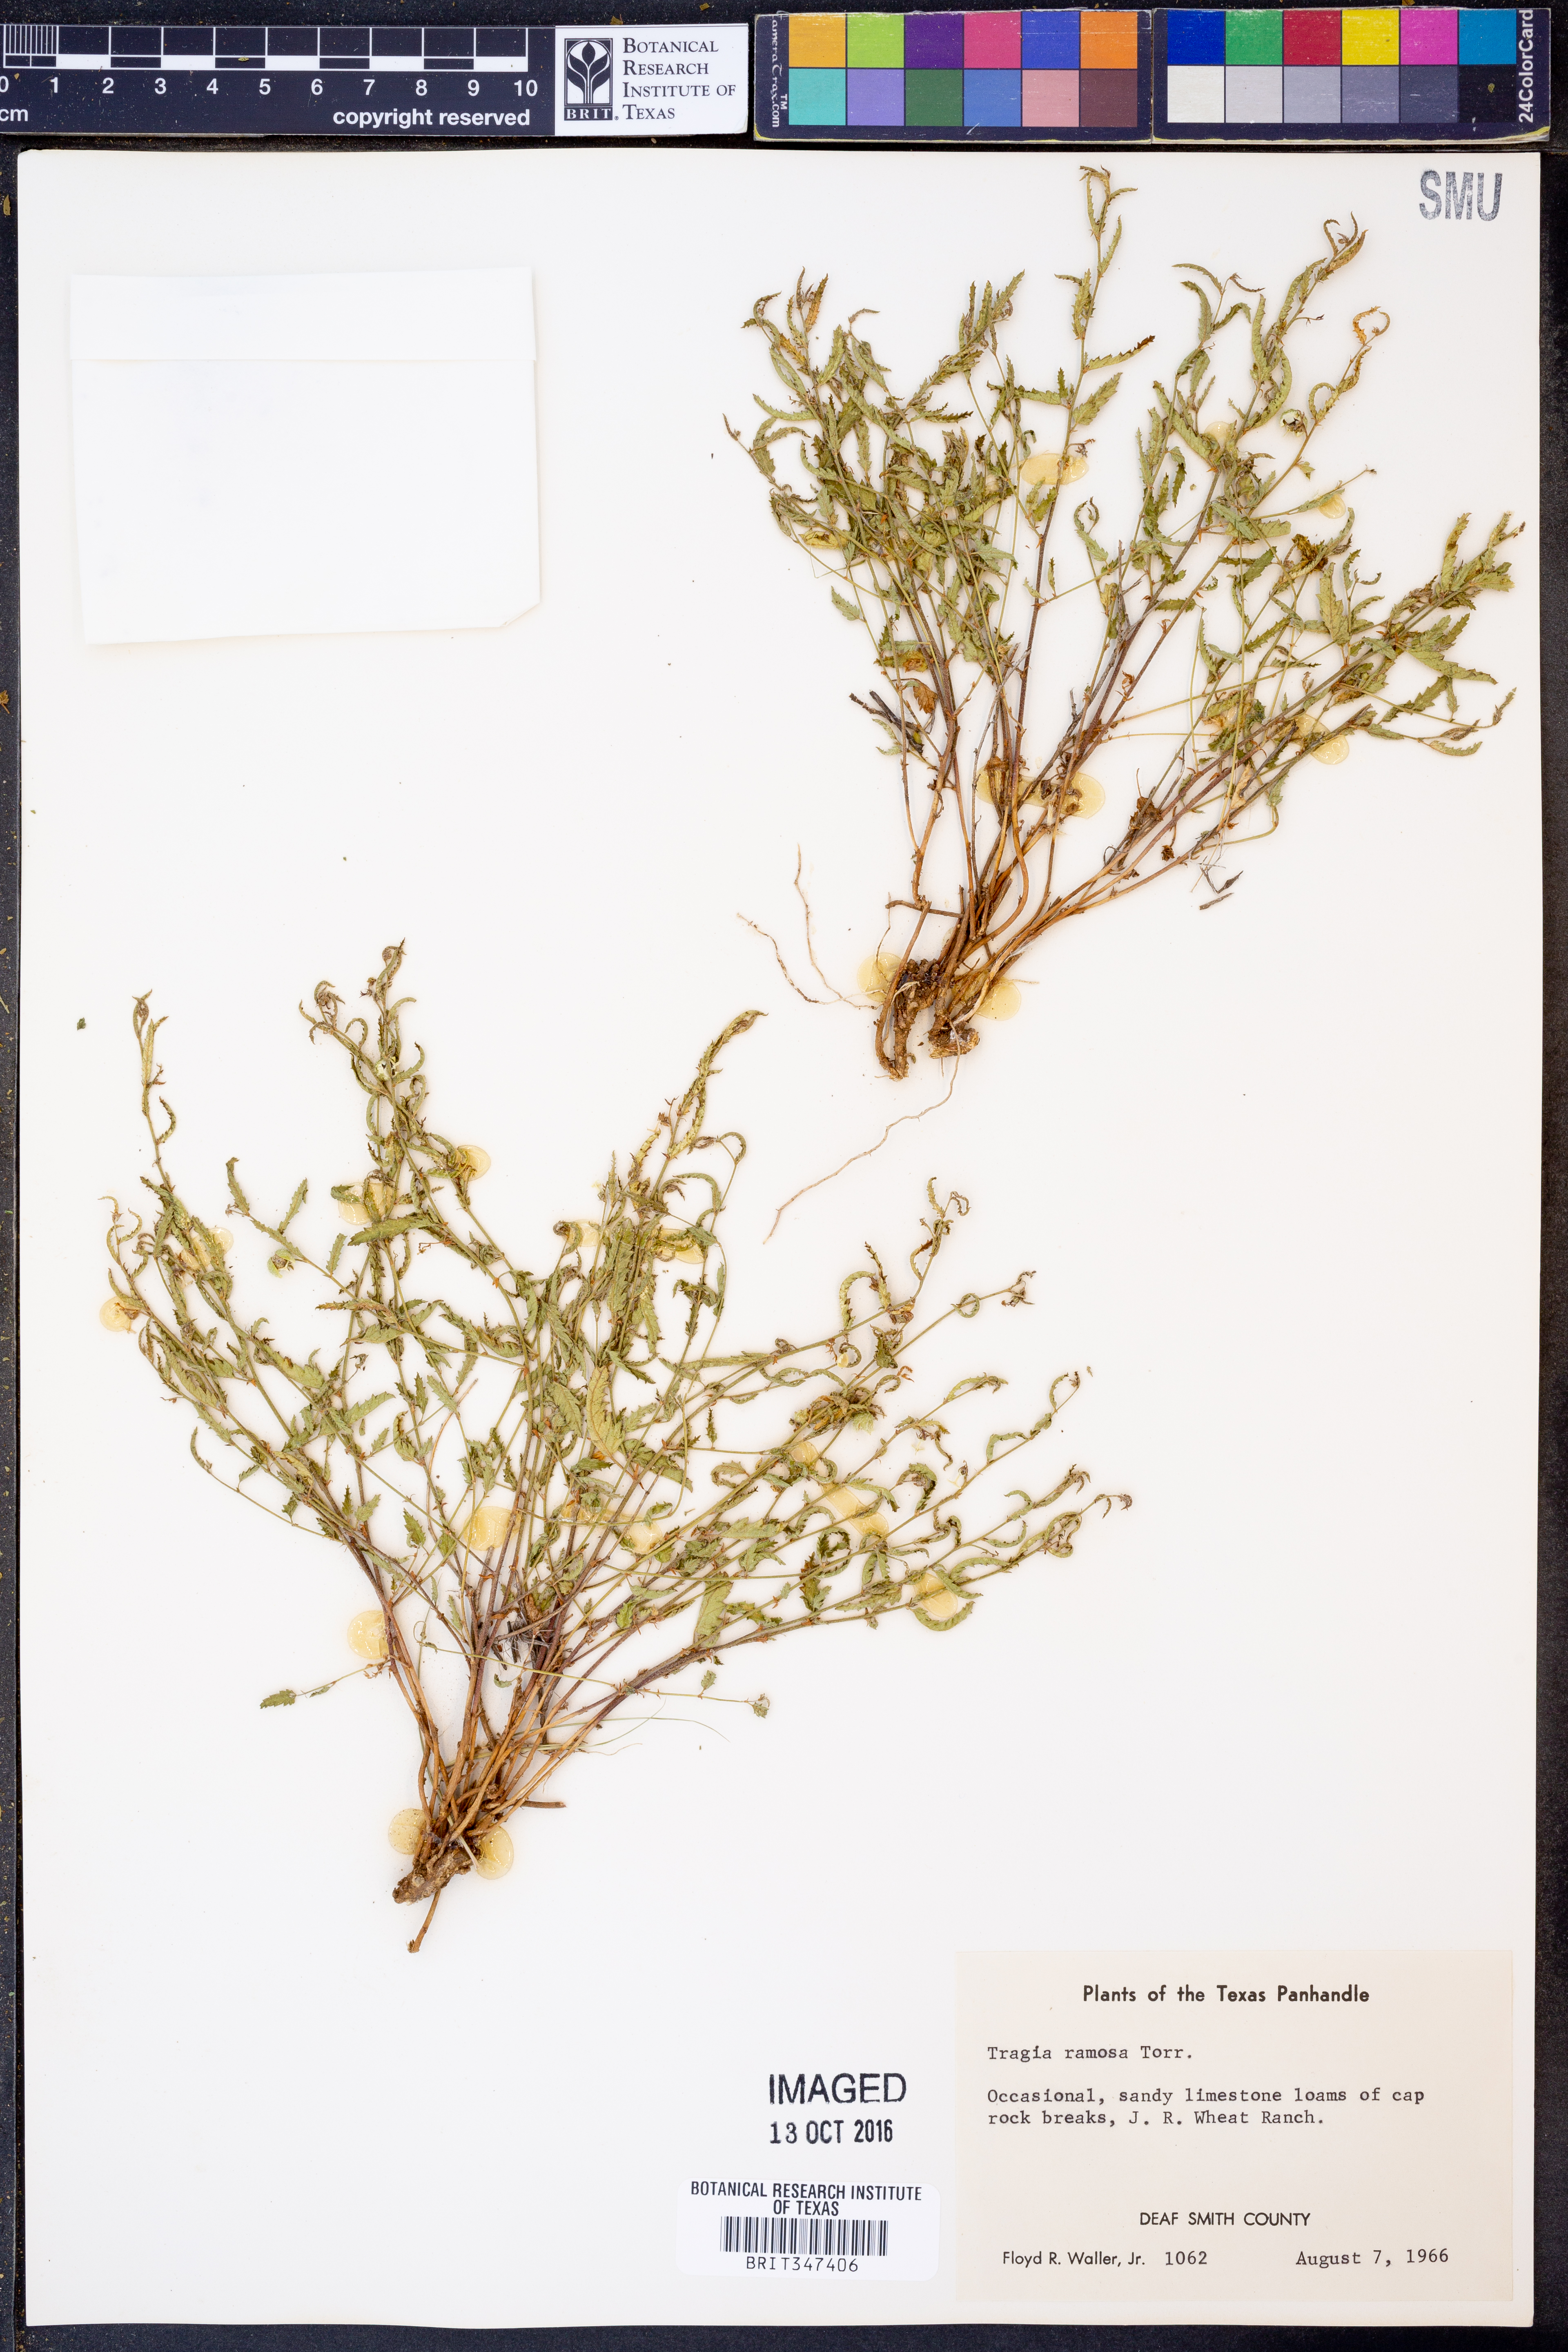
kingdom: Plantae
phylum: Tracheophyta
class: Magnoliopsida
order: Malpighiales
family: Euphorbiaceae
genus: Tragia
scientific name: Tragia ramosa
